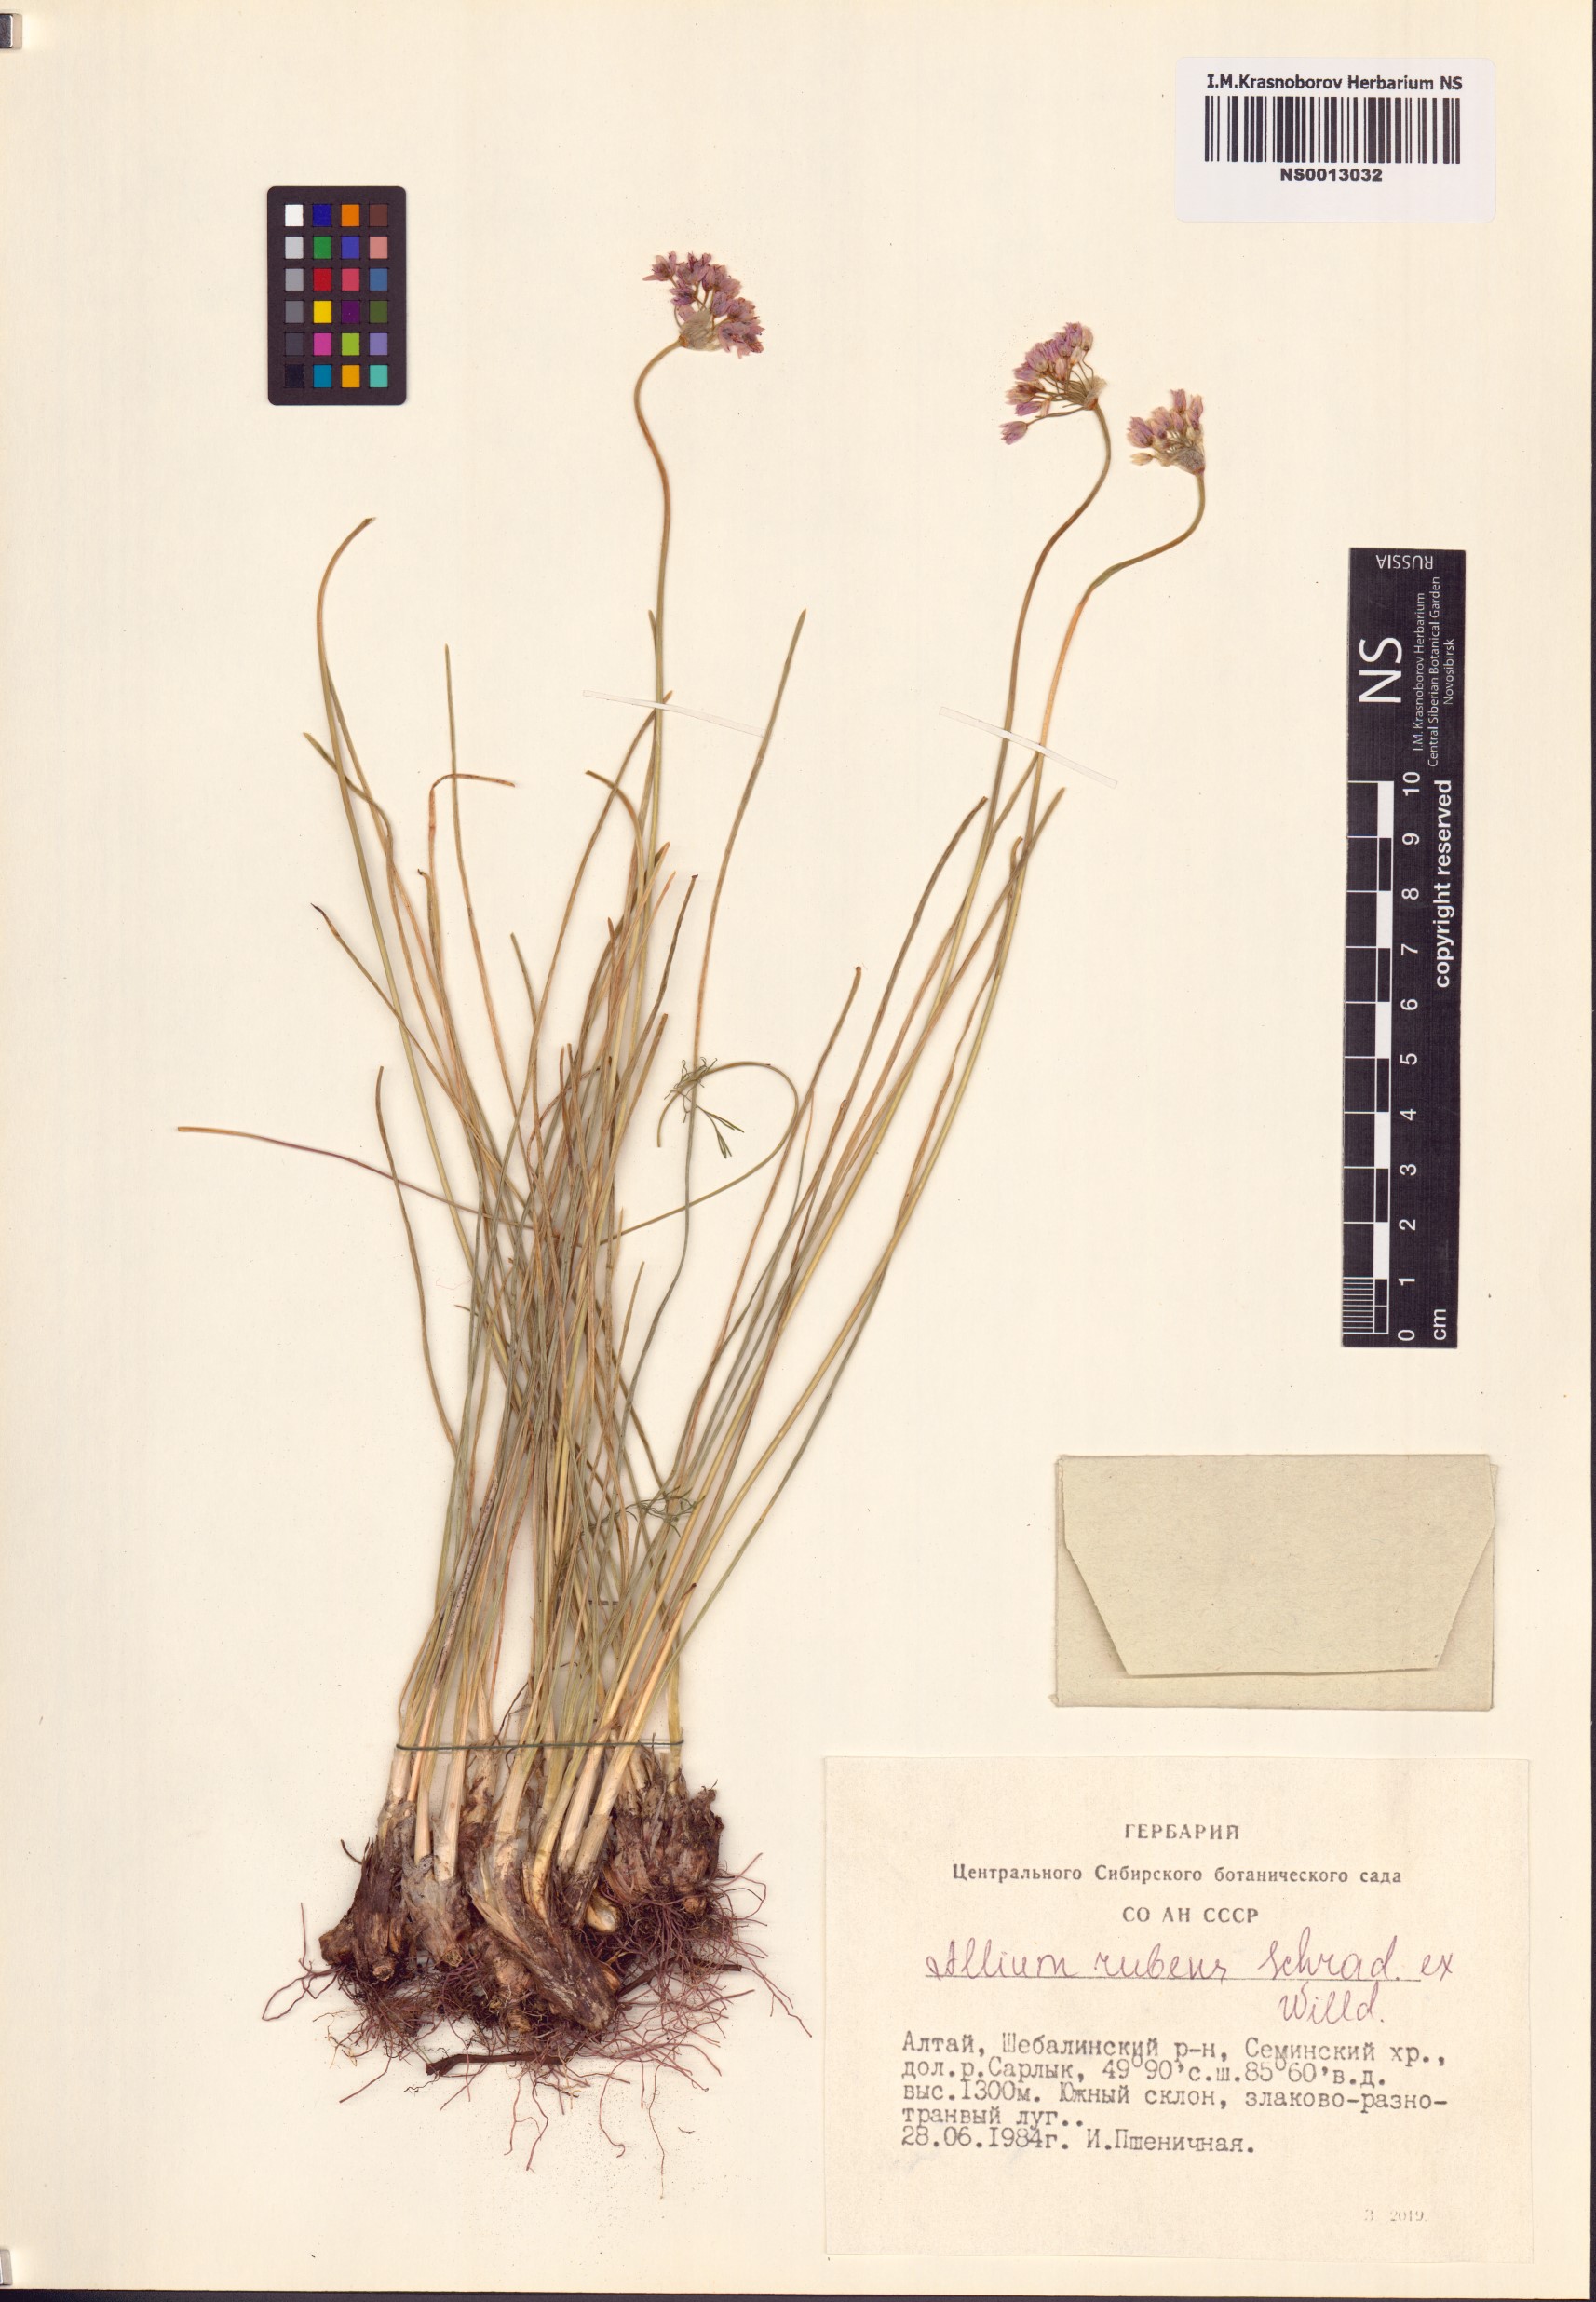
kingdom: Plantae
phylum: Tracheophyta
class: Liliopsida
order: Asparagales
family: Amaryllidaceae
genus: Allium
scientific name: Allium rubens
